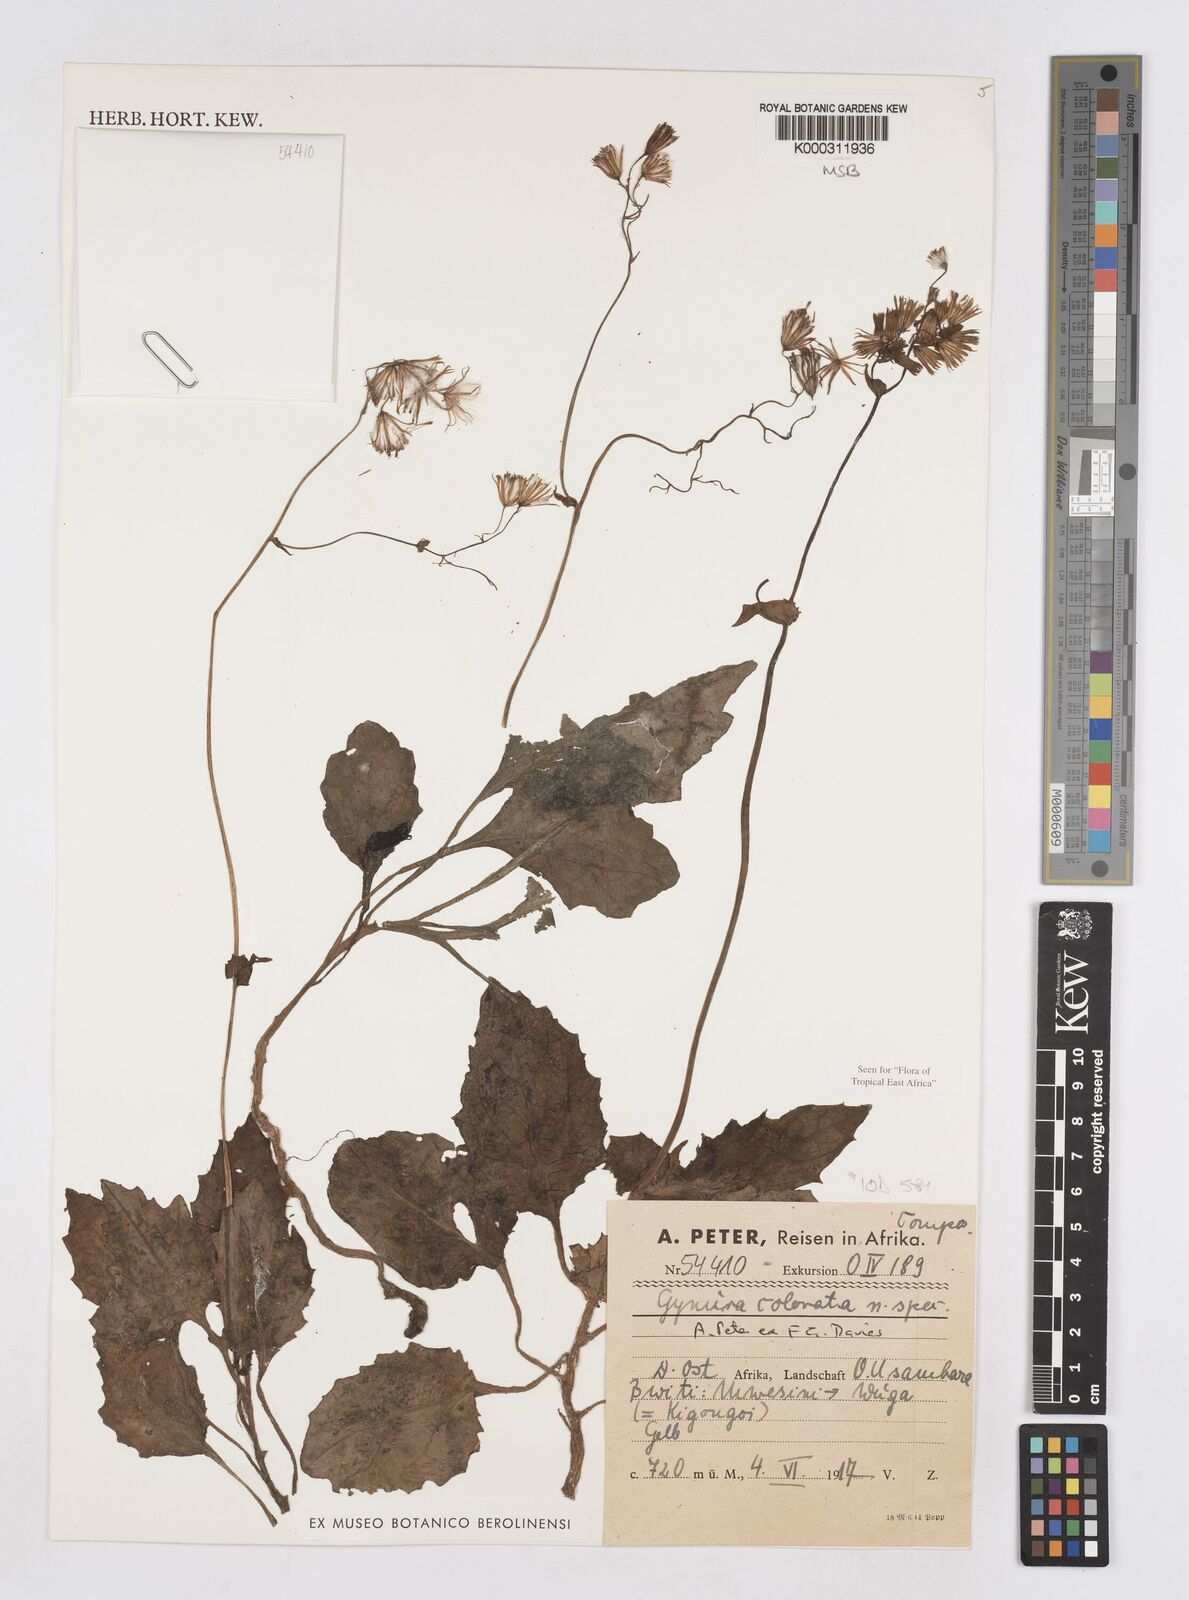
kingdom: Plantae
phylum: Tracheophyta
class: Magnoliopsida
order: Asterales
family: Asteraceae
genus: Gynura
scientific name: Gynura colorata
